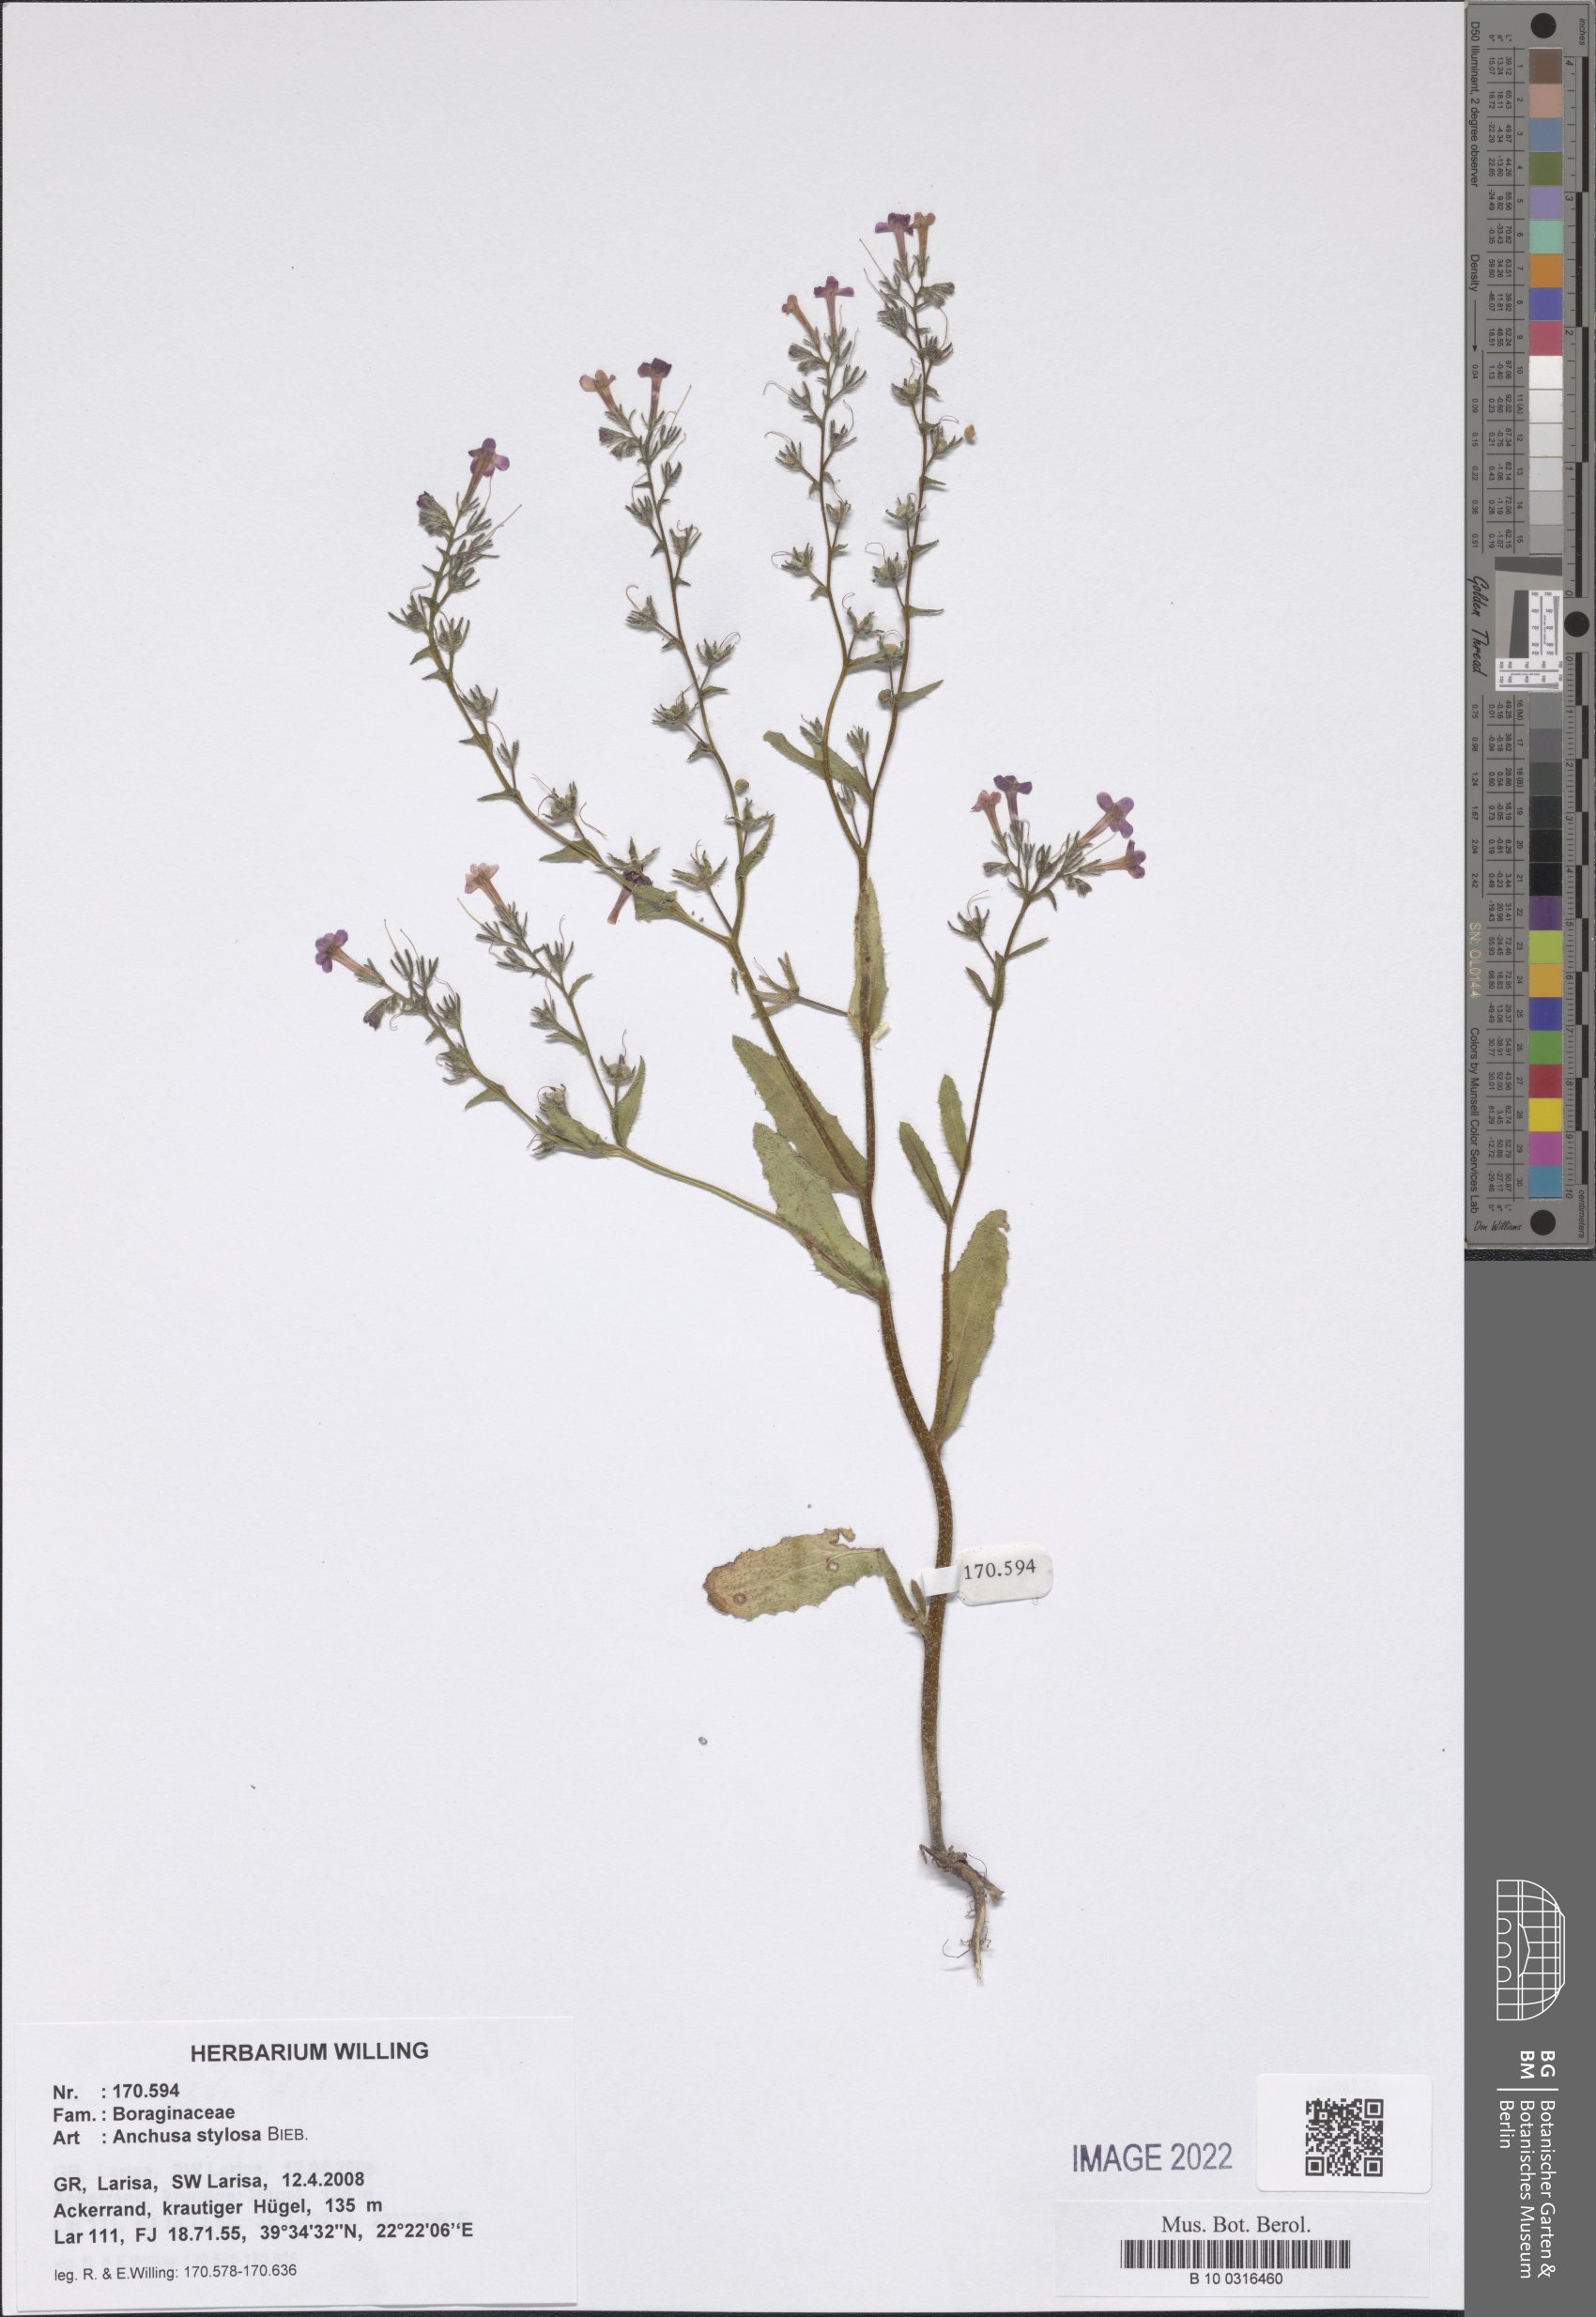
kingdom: Plantae
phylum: Tracheophyta
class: Magnoliopsida
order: Boraginales
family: Boraginaceae
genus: Anchusa
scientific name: Anchusa stylosa
